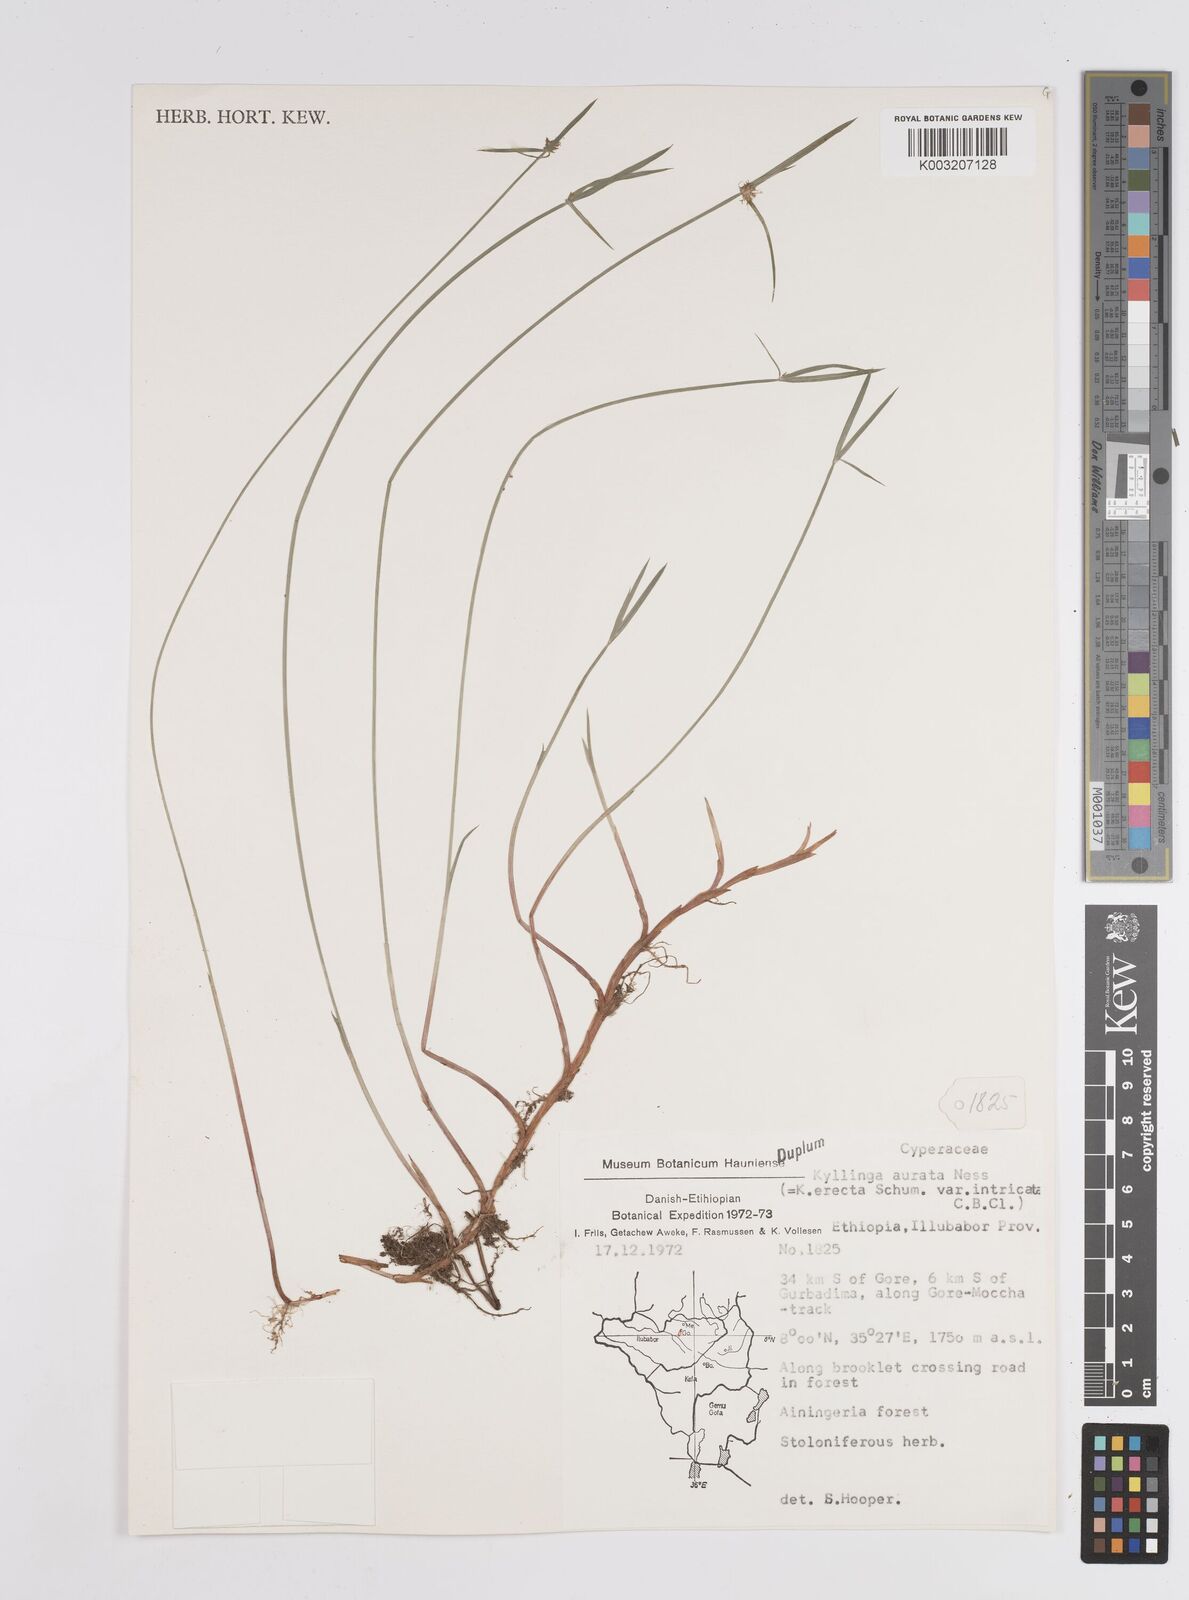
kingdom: Plantae
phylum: Tracheophyta
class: Liliopsida
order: Poales
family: Cyperaceae
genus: Cyperus
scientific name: Cyperus
